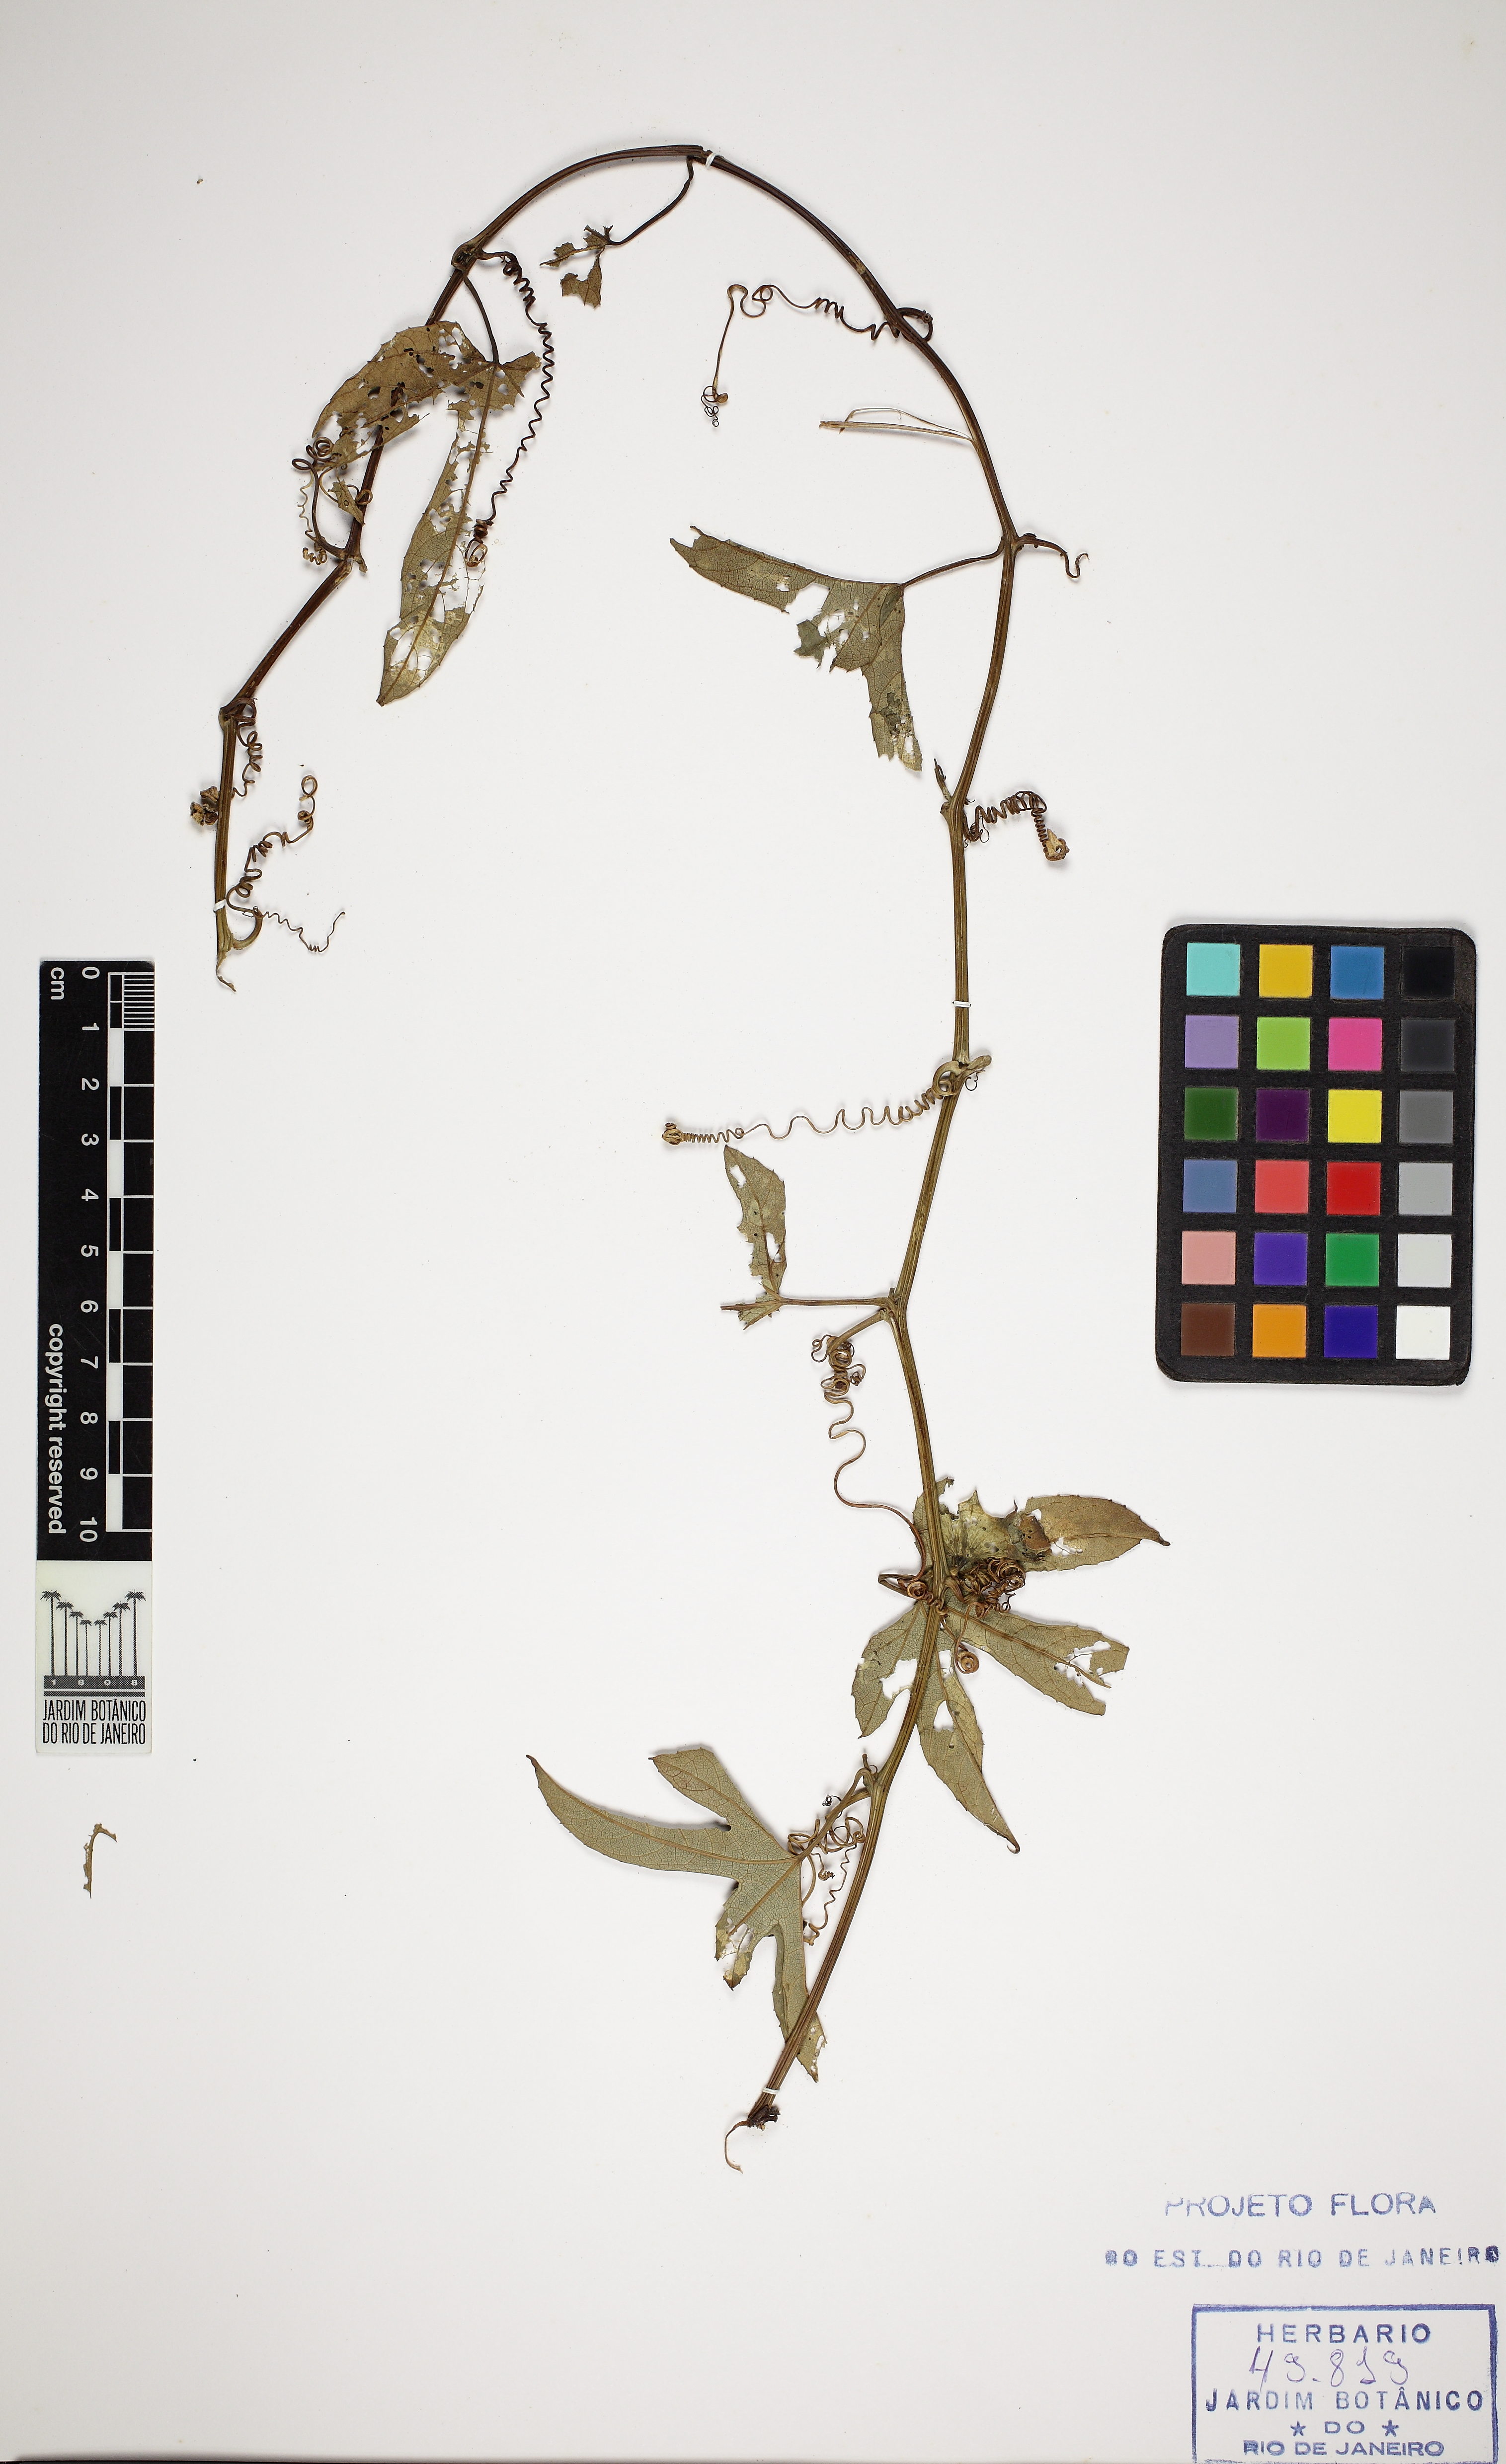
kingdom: Plantae
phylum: Tracheophyta
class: Magnoliopsida
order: Cucurbitales
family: Cucurbitaceae
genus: Cayaponia
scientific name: Cayaponia martiana
